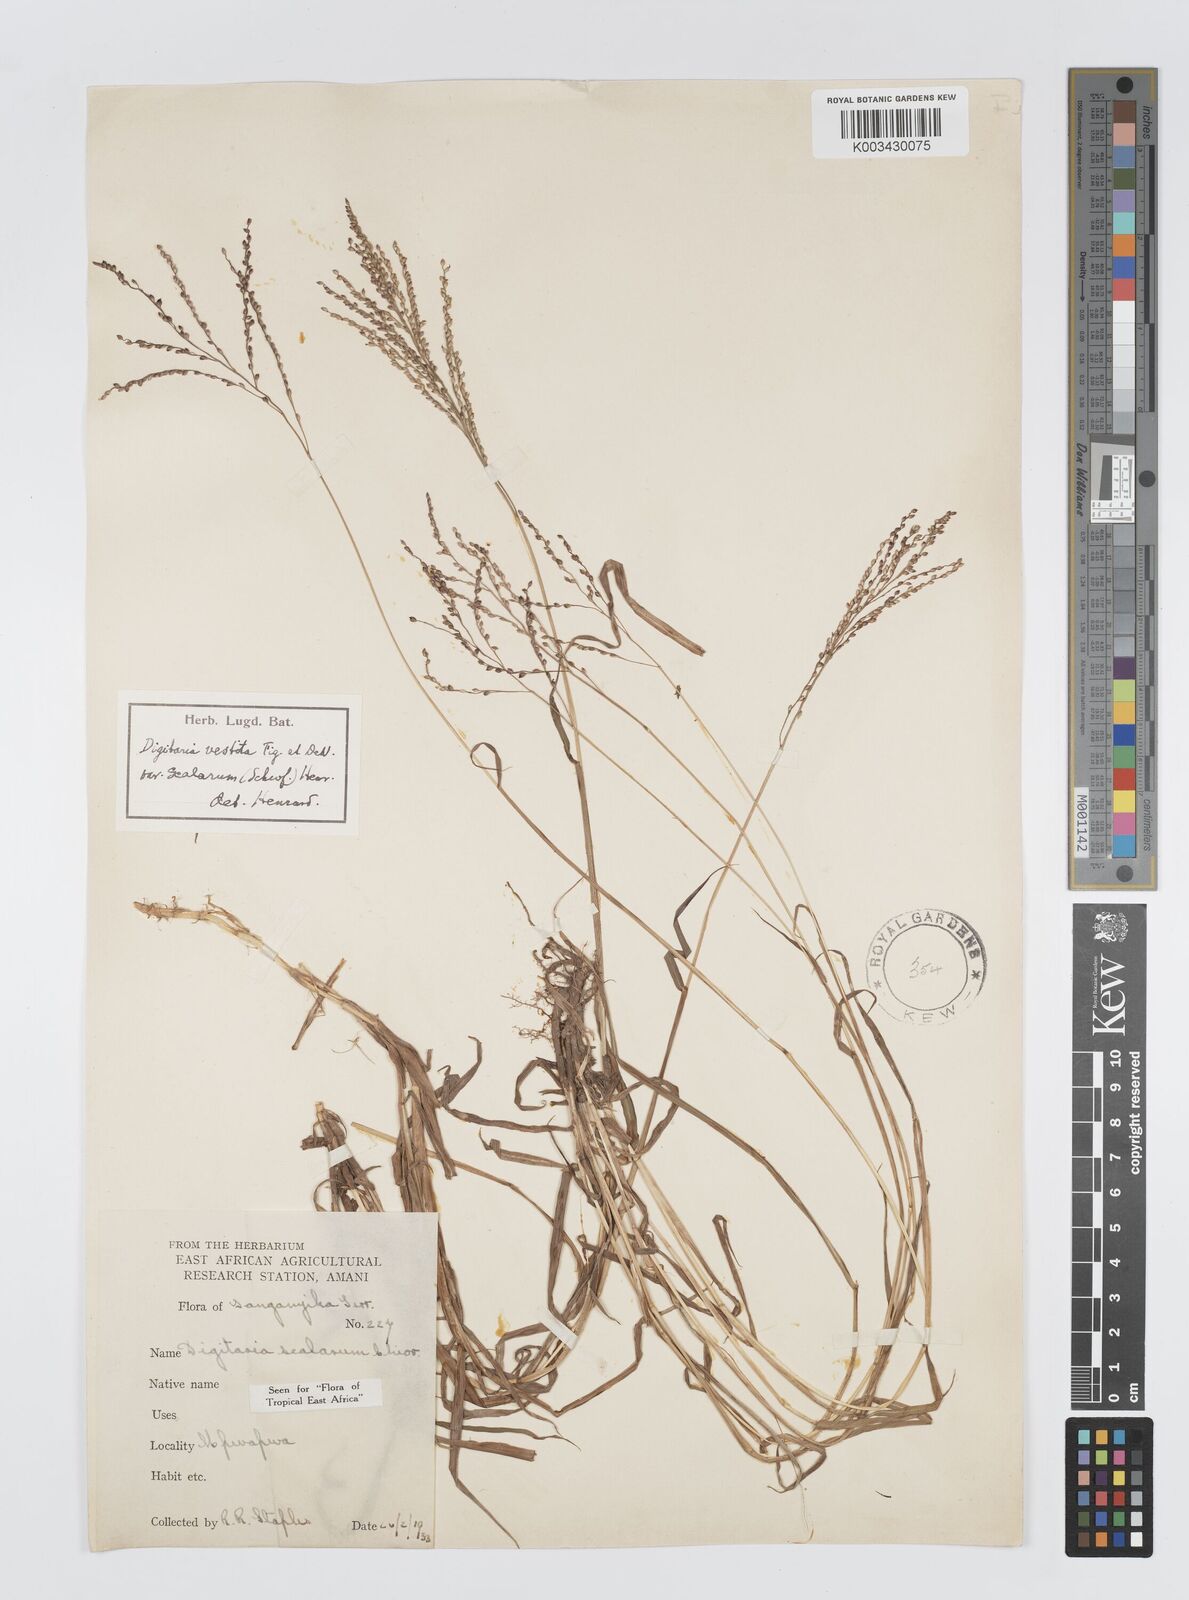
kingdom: Plantae
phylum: Tracheophyta
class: Liliopsida
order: Poales
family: Poaceae
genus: Digitaria
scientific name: Digitaria abyssinica
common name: African couchgrass
